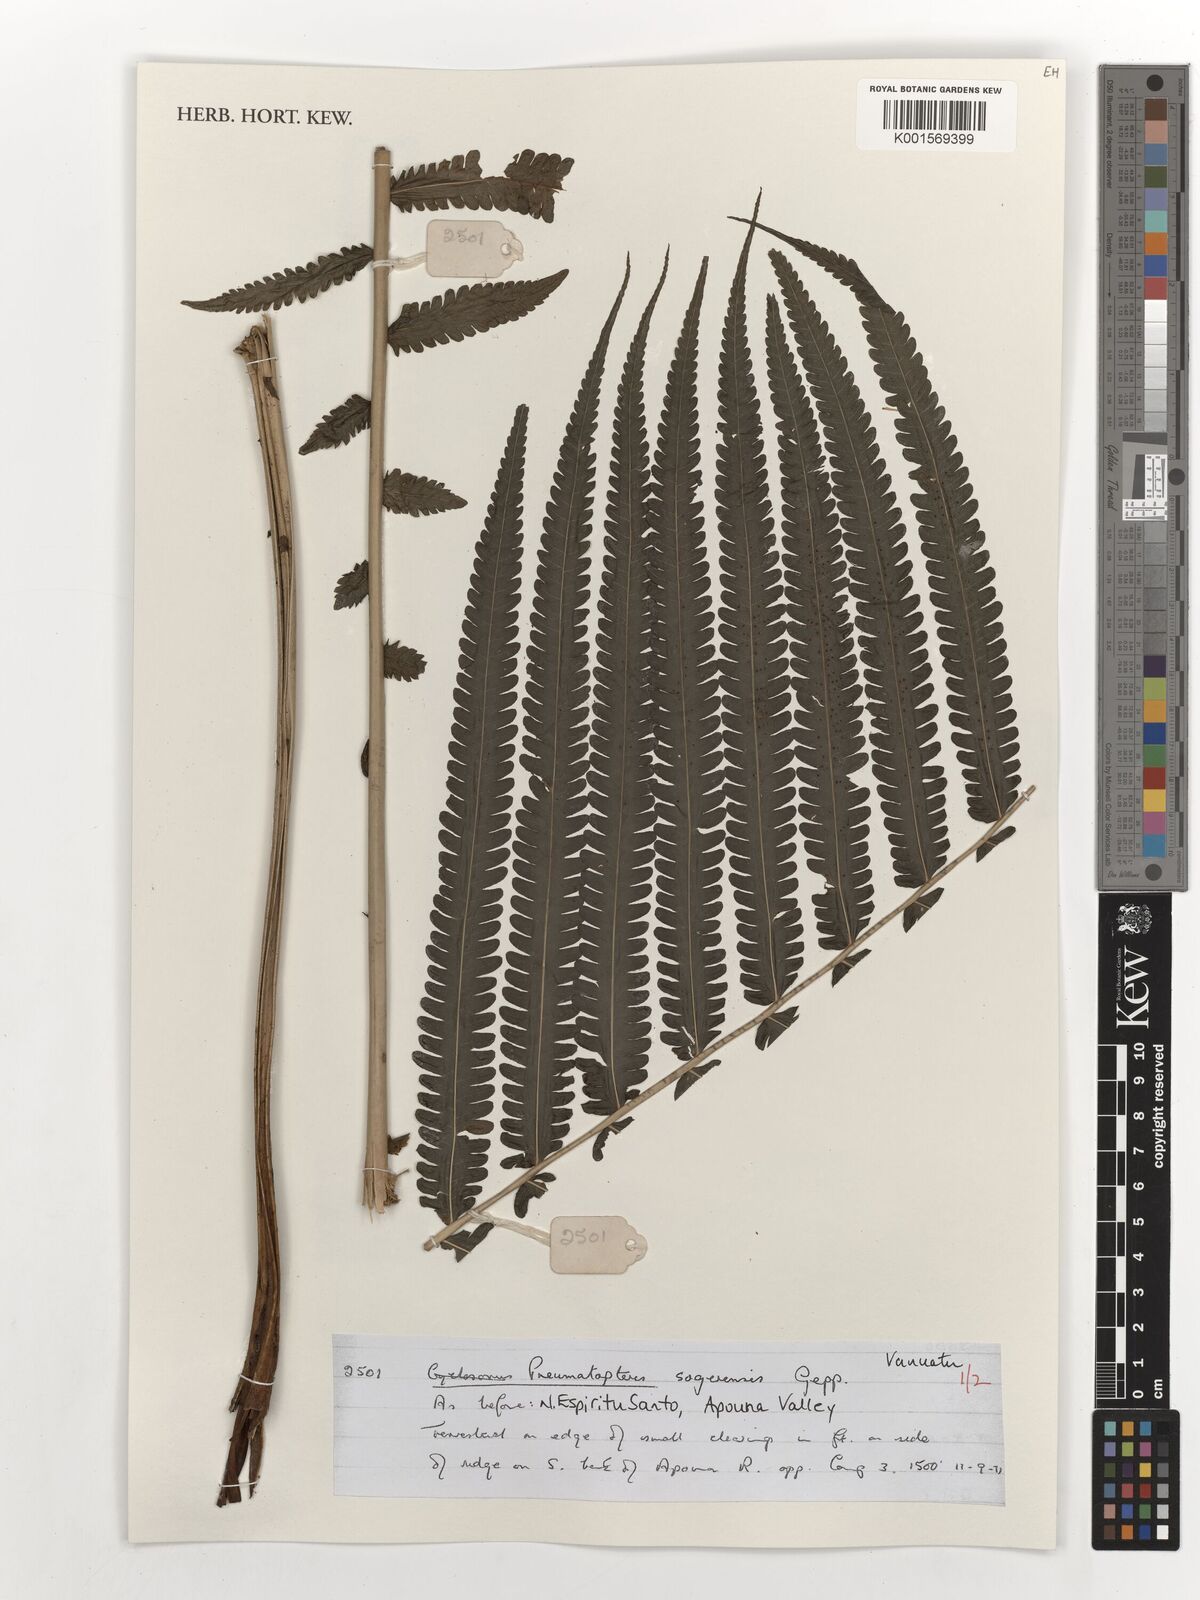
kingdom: Plantae
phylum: Tracheophyta
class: Polypodiopsida
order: Polypodiales
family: Thelypteridaceae
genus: Reholttumia
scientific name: Reholttumia sogerensis
